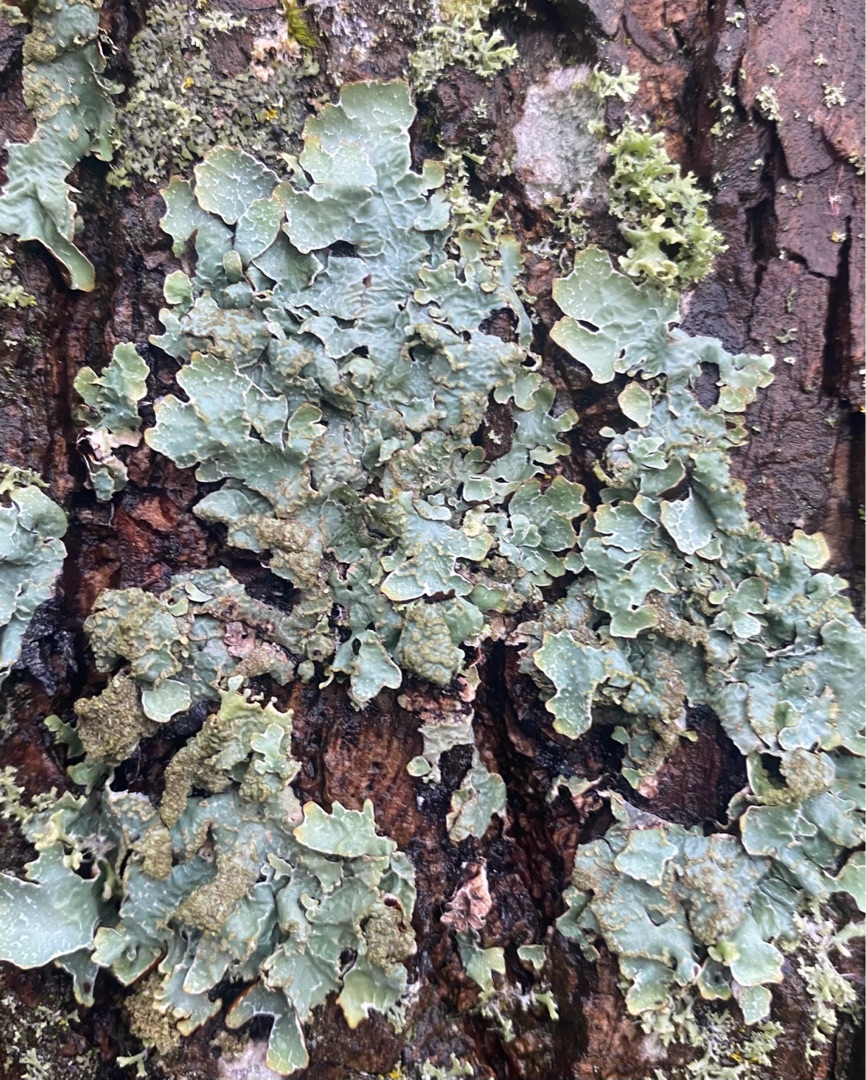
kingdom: Fungi
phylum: Ascomycota
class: Lecanoromycetes
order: Lecanorales
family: Parmeliaceae
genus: Parmelia
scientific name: Parmelia sulcata
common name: Rynket skållav
